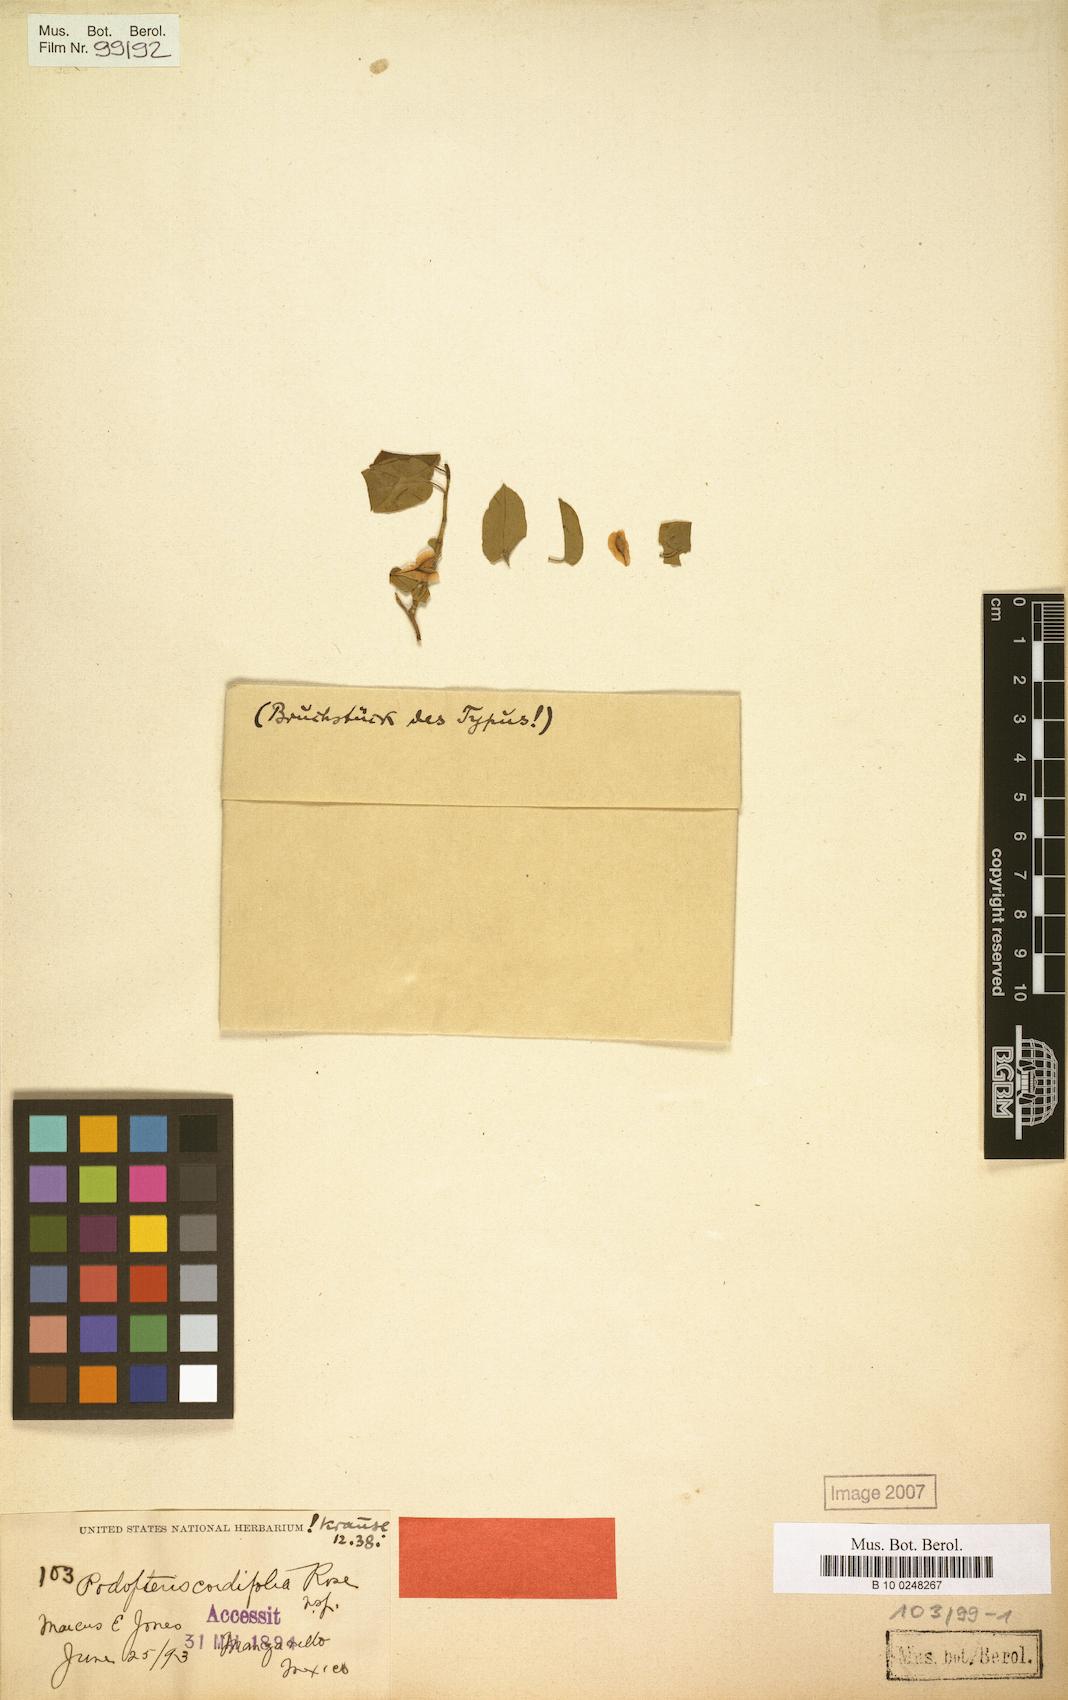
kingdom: Plantae
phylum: Tracheophyta
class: Magnoliopsida
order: Caryophyllales
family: Polygonaceae
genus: Podopterus
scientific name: Podopterus cordifolius
